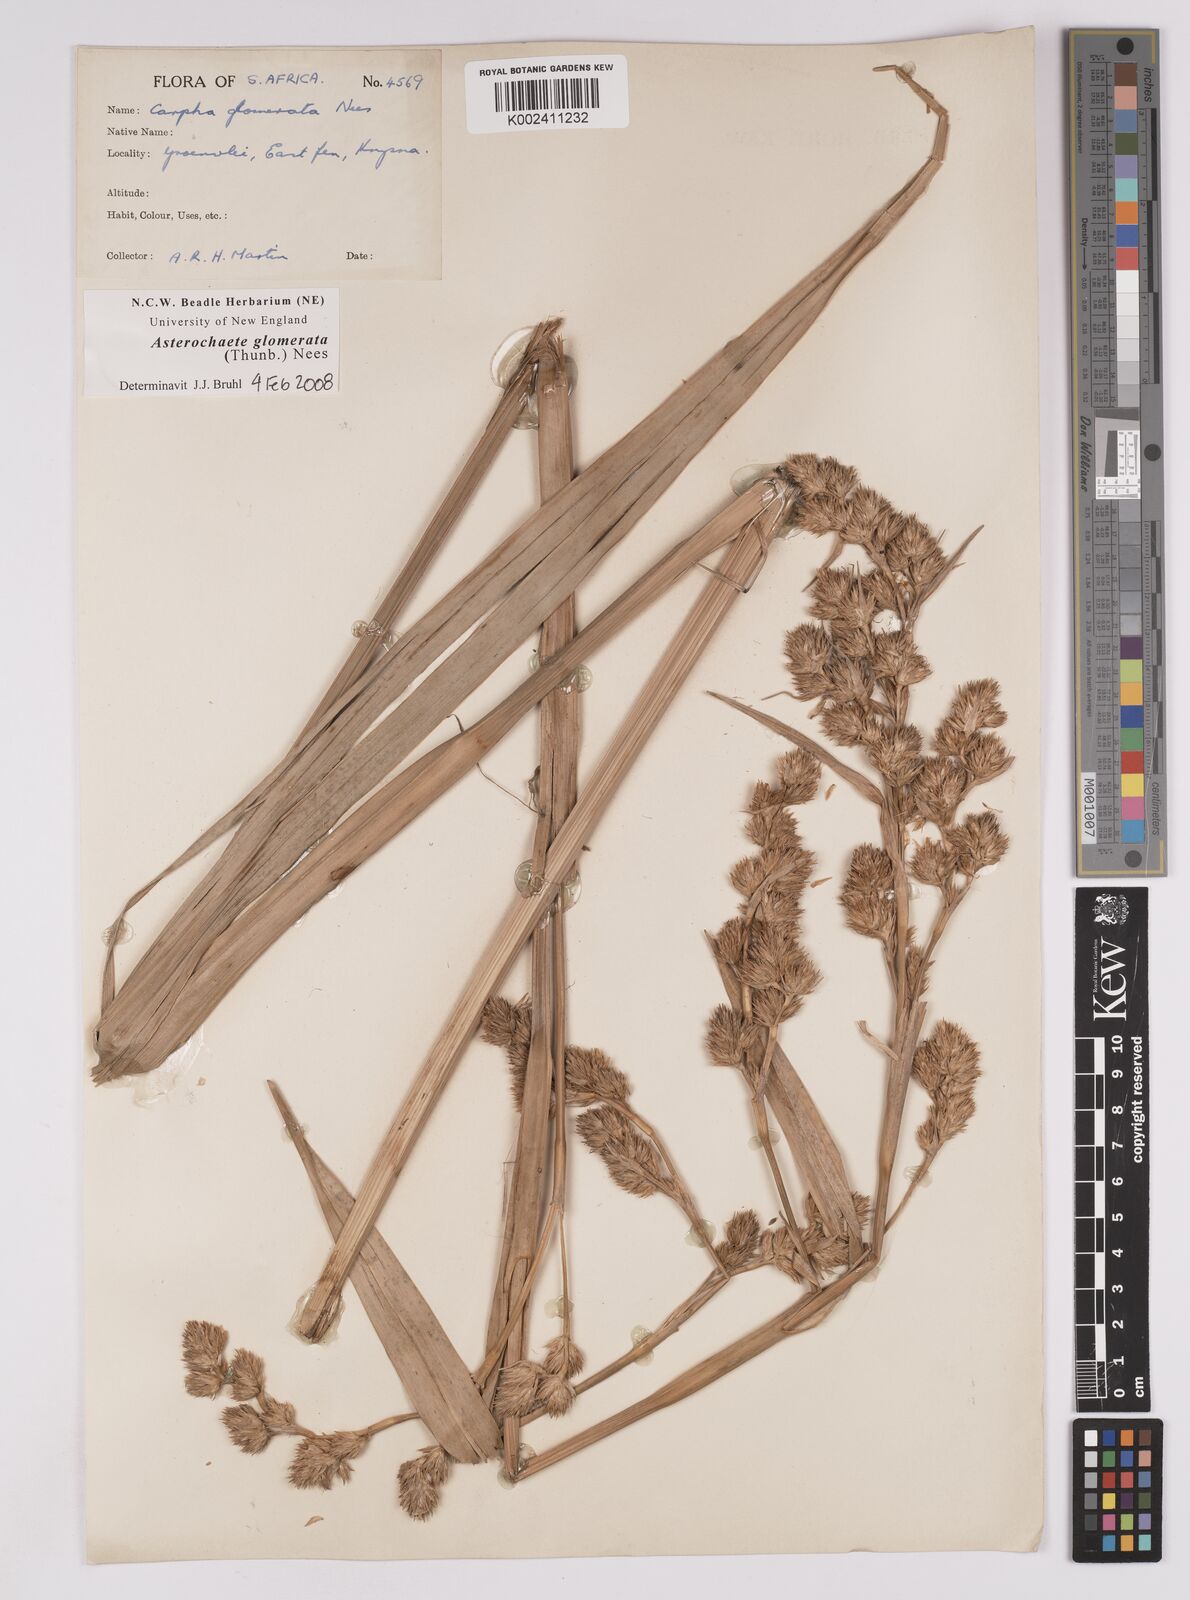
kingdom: Plantae
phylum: Tracheophyta
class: Liliopsida
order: Poales
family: Cyperaceae
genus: Carpha
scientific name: Carpha glomerata
